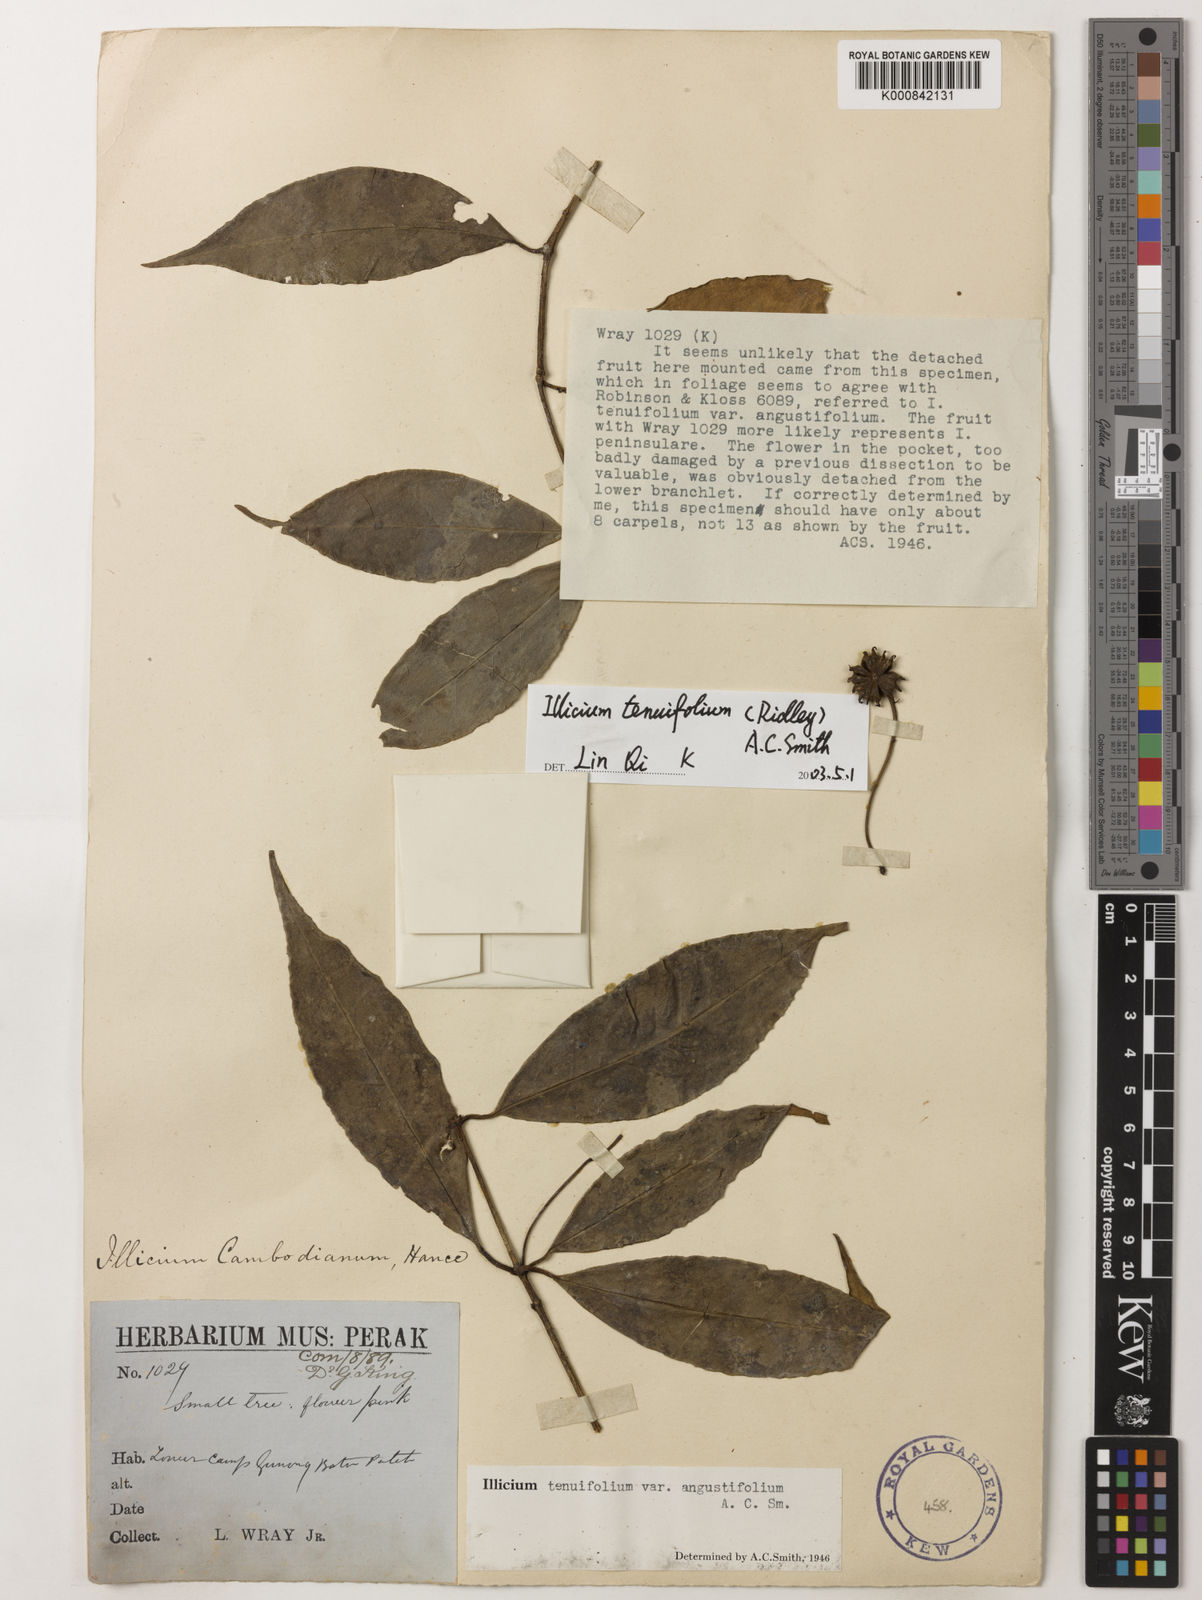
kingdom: Plantae
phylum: Tracheophyta
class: Magnoliopsida
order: Austrobaileyales
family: Schisandraceae
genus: Illicium
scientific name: Illicium tenuifolium
